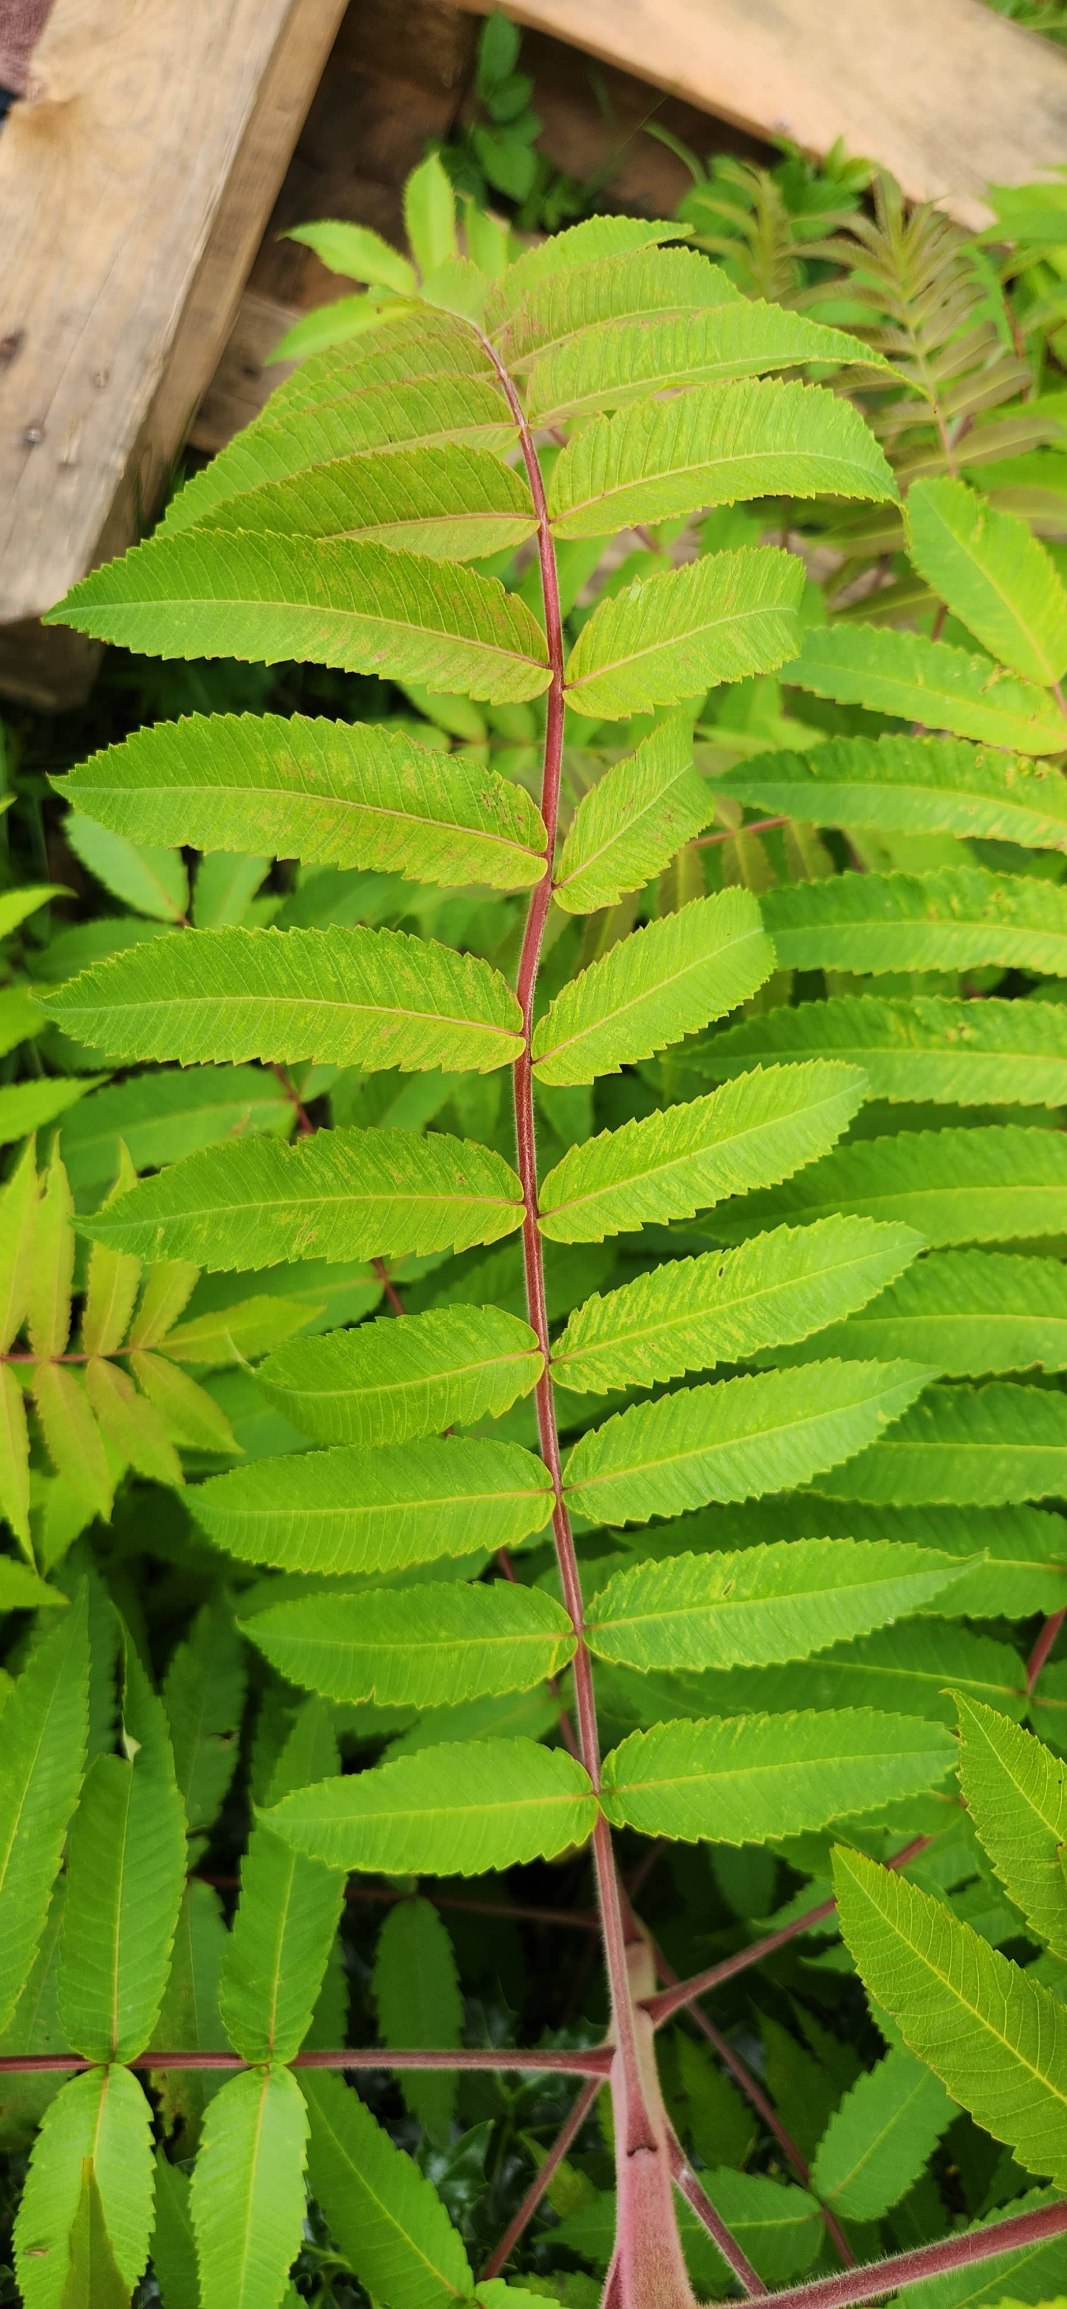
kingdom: Plantae
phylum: Tracheophyta
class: Magnoliopsida
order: Sapindales
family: Anacardiaceae
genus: Rhus
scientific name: Rhus typhina
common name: Hjortetaktræ
